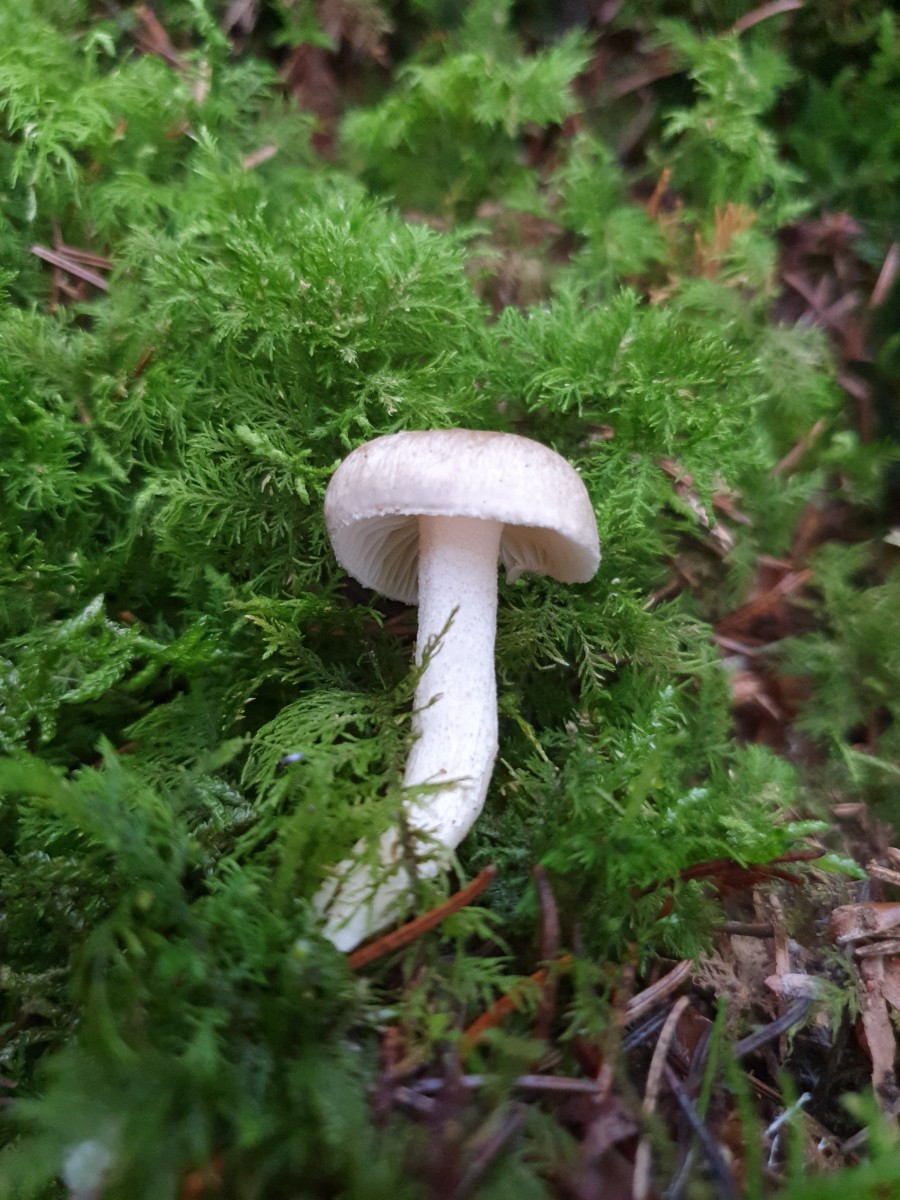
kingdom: Fungi
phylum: Basidiomycota
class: Agaricomycetes
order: Agaricales
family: Hygrophoraceae
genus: Hygrophorus
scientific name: Hygrophorus pustulatus
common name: mørkprikket sneglehat
